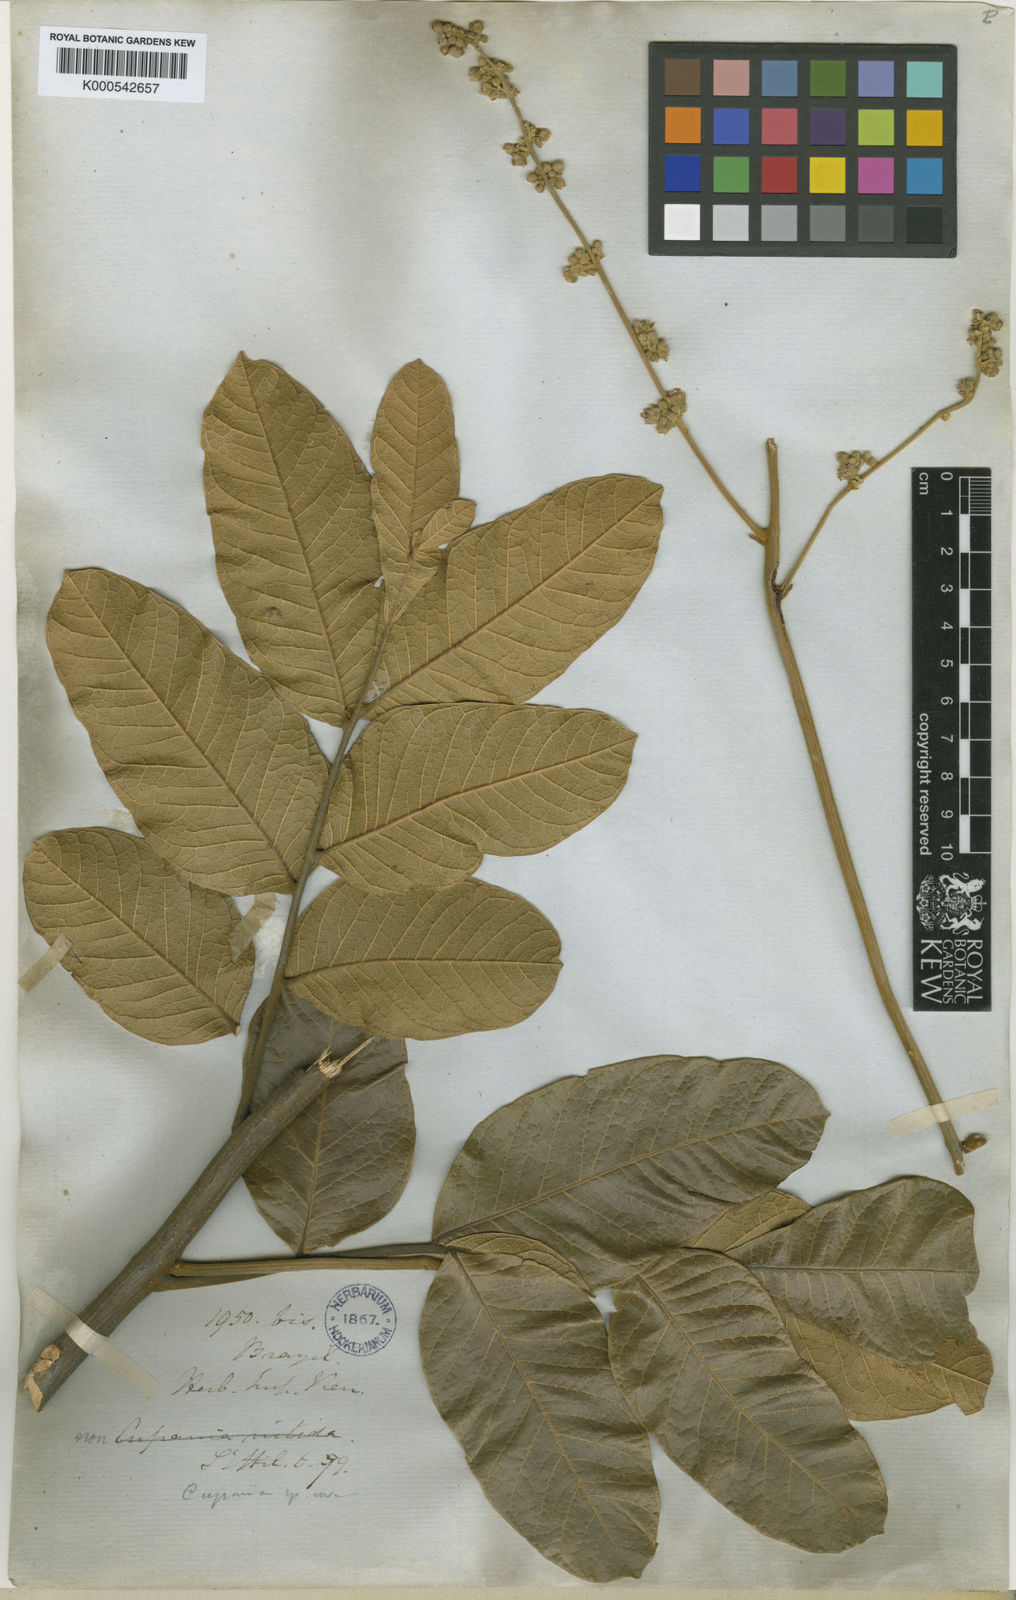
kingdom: Plantae
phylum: Tracheophyta
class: Magnoliopsida
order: Sapindales
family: Sapindaceae
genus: Toulicia
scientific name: Toulicia tomentosa
